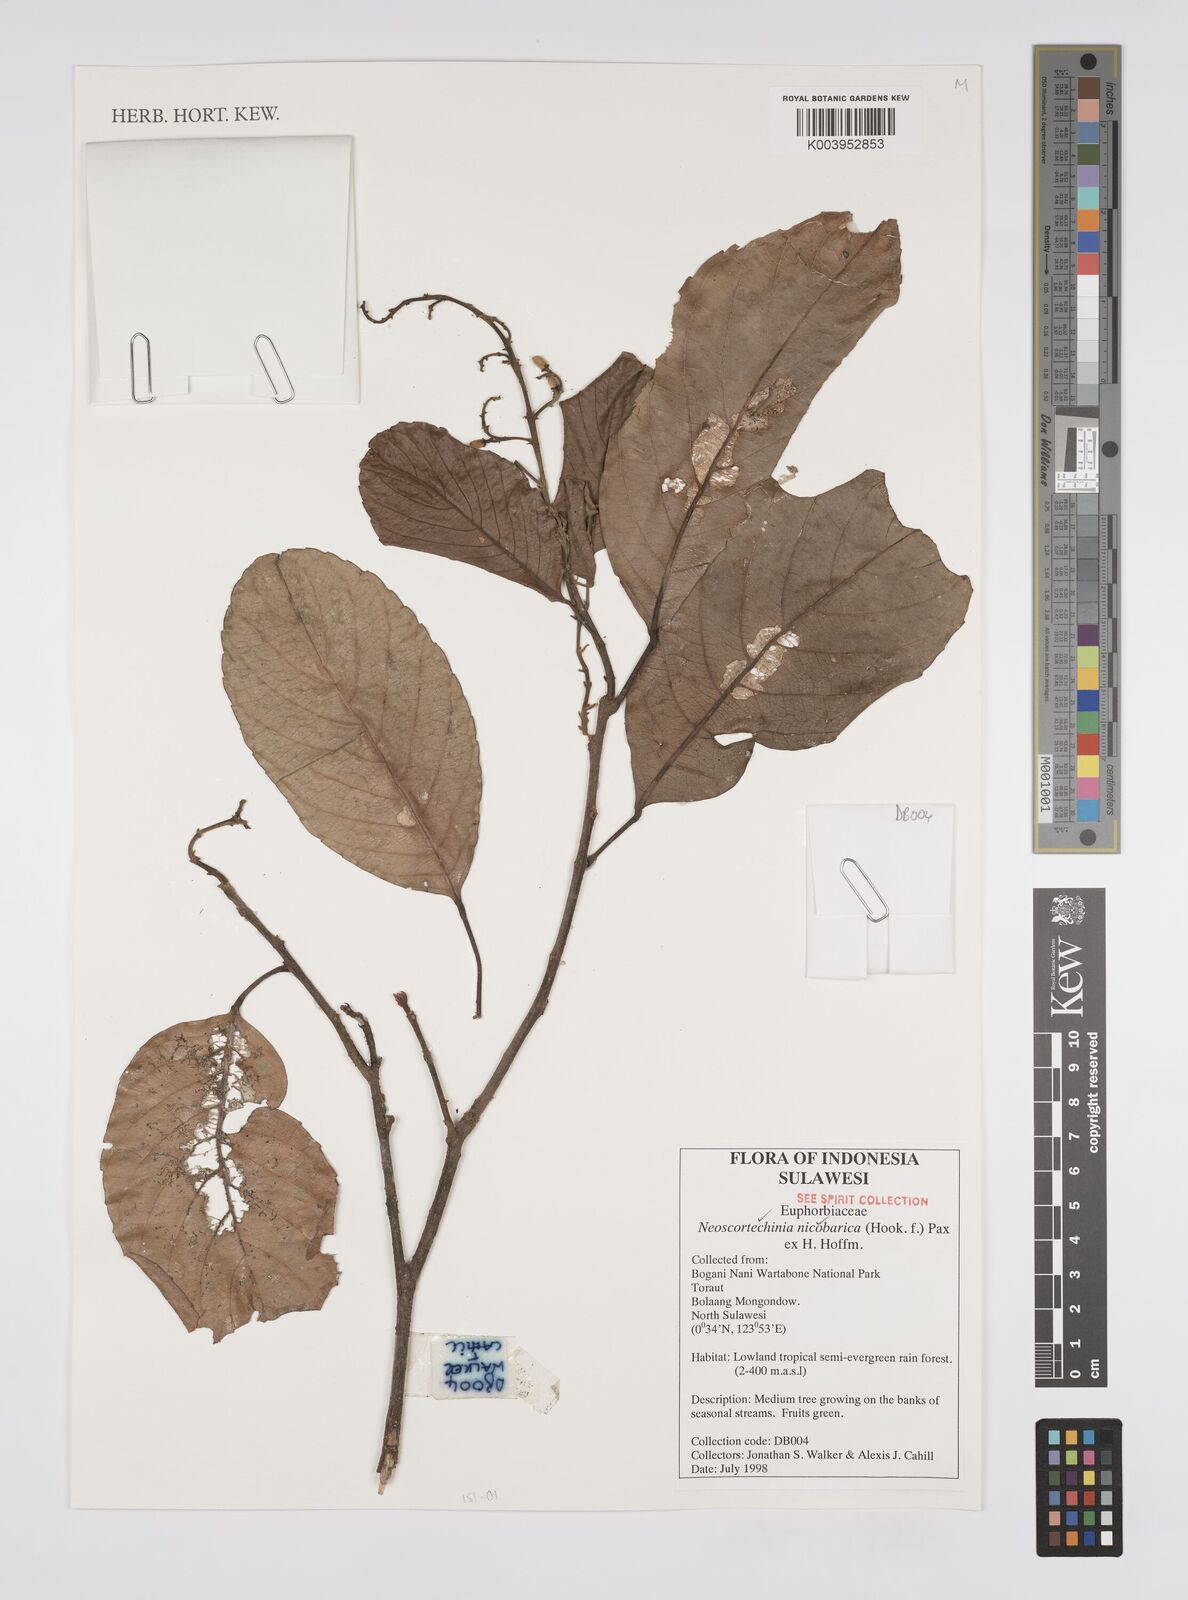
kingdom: Plantae
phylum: Tracheophyta
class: Magnoliopsida
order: Malpighiales
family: Euphorbiaceae
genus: Neoscortechinia
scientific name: Neoscortechinia nicobarica
